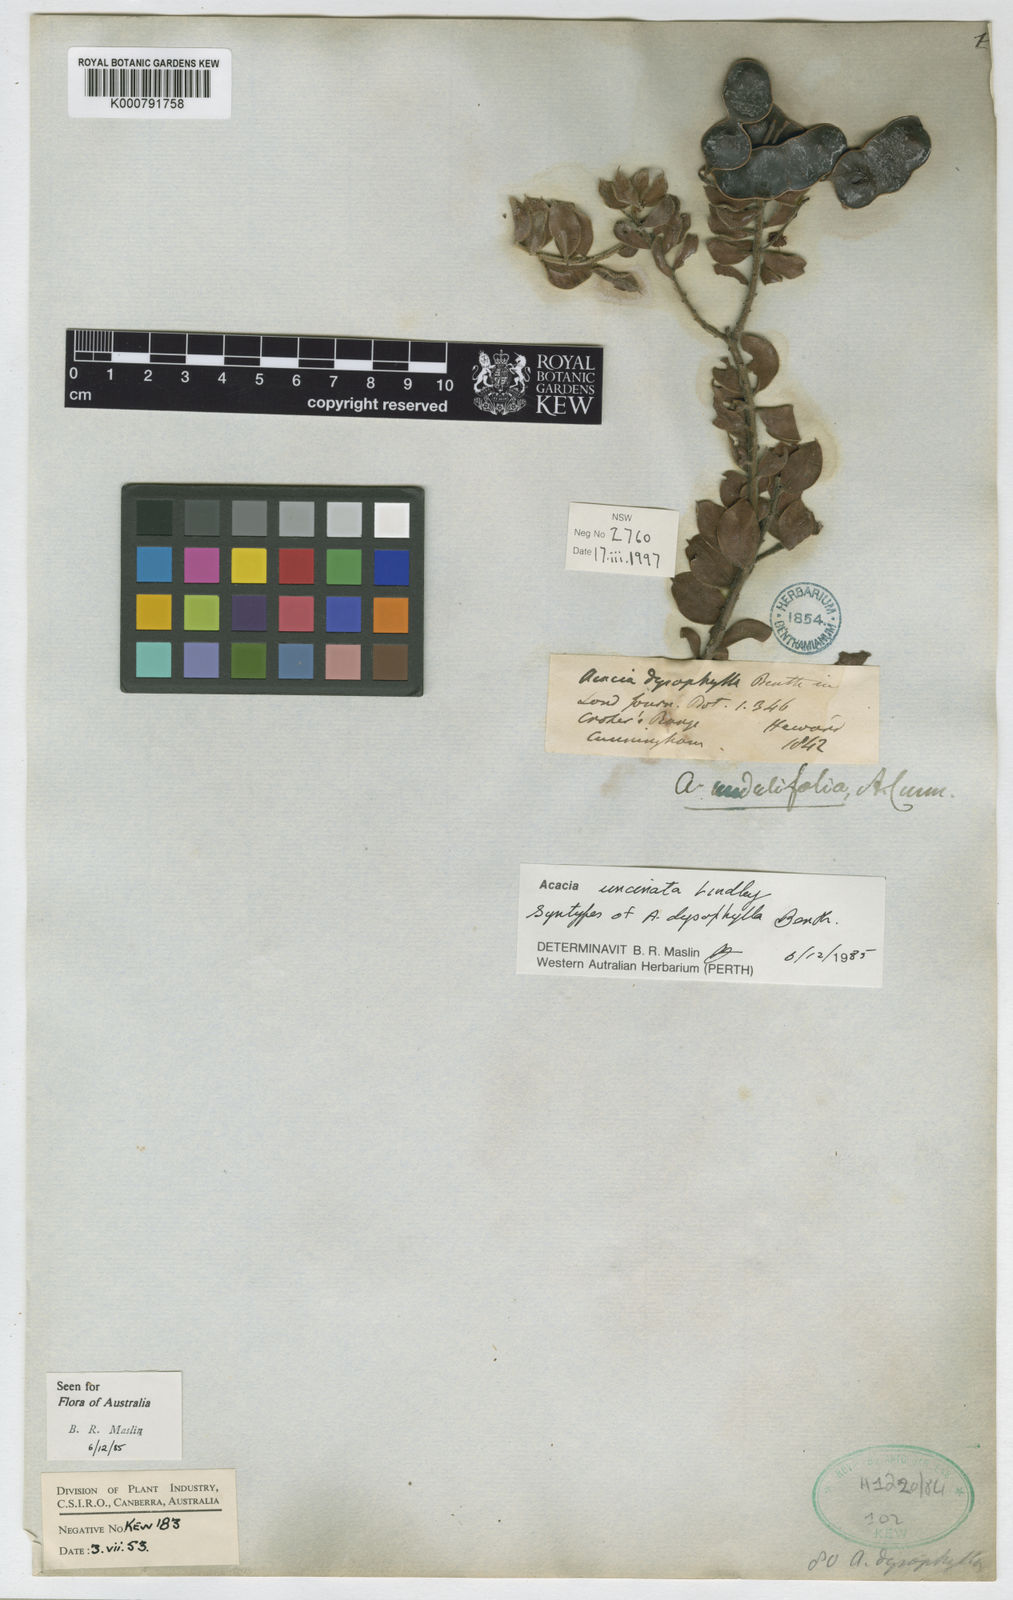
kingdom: Plantae
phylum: Tracheophyta
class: Magnoliopsida
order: Fabales
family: Fabaceae
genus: Acacia
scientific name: Acacia undulifolia
